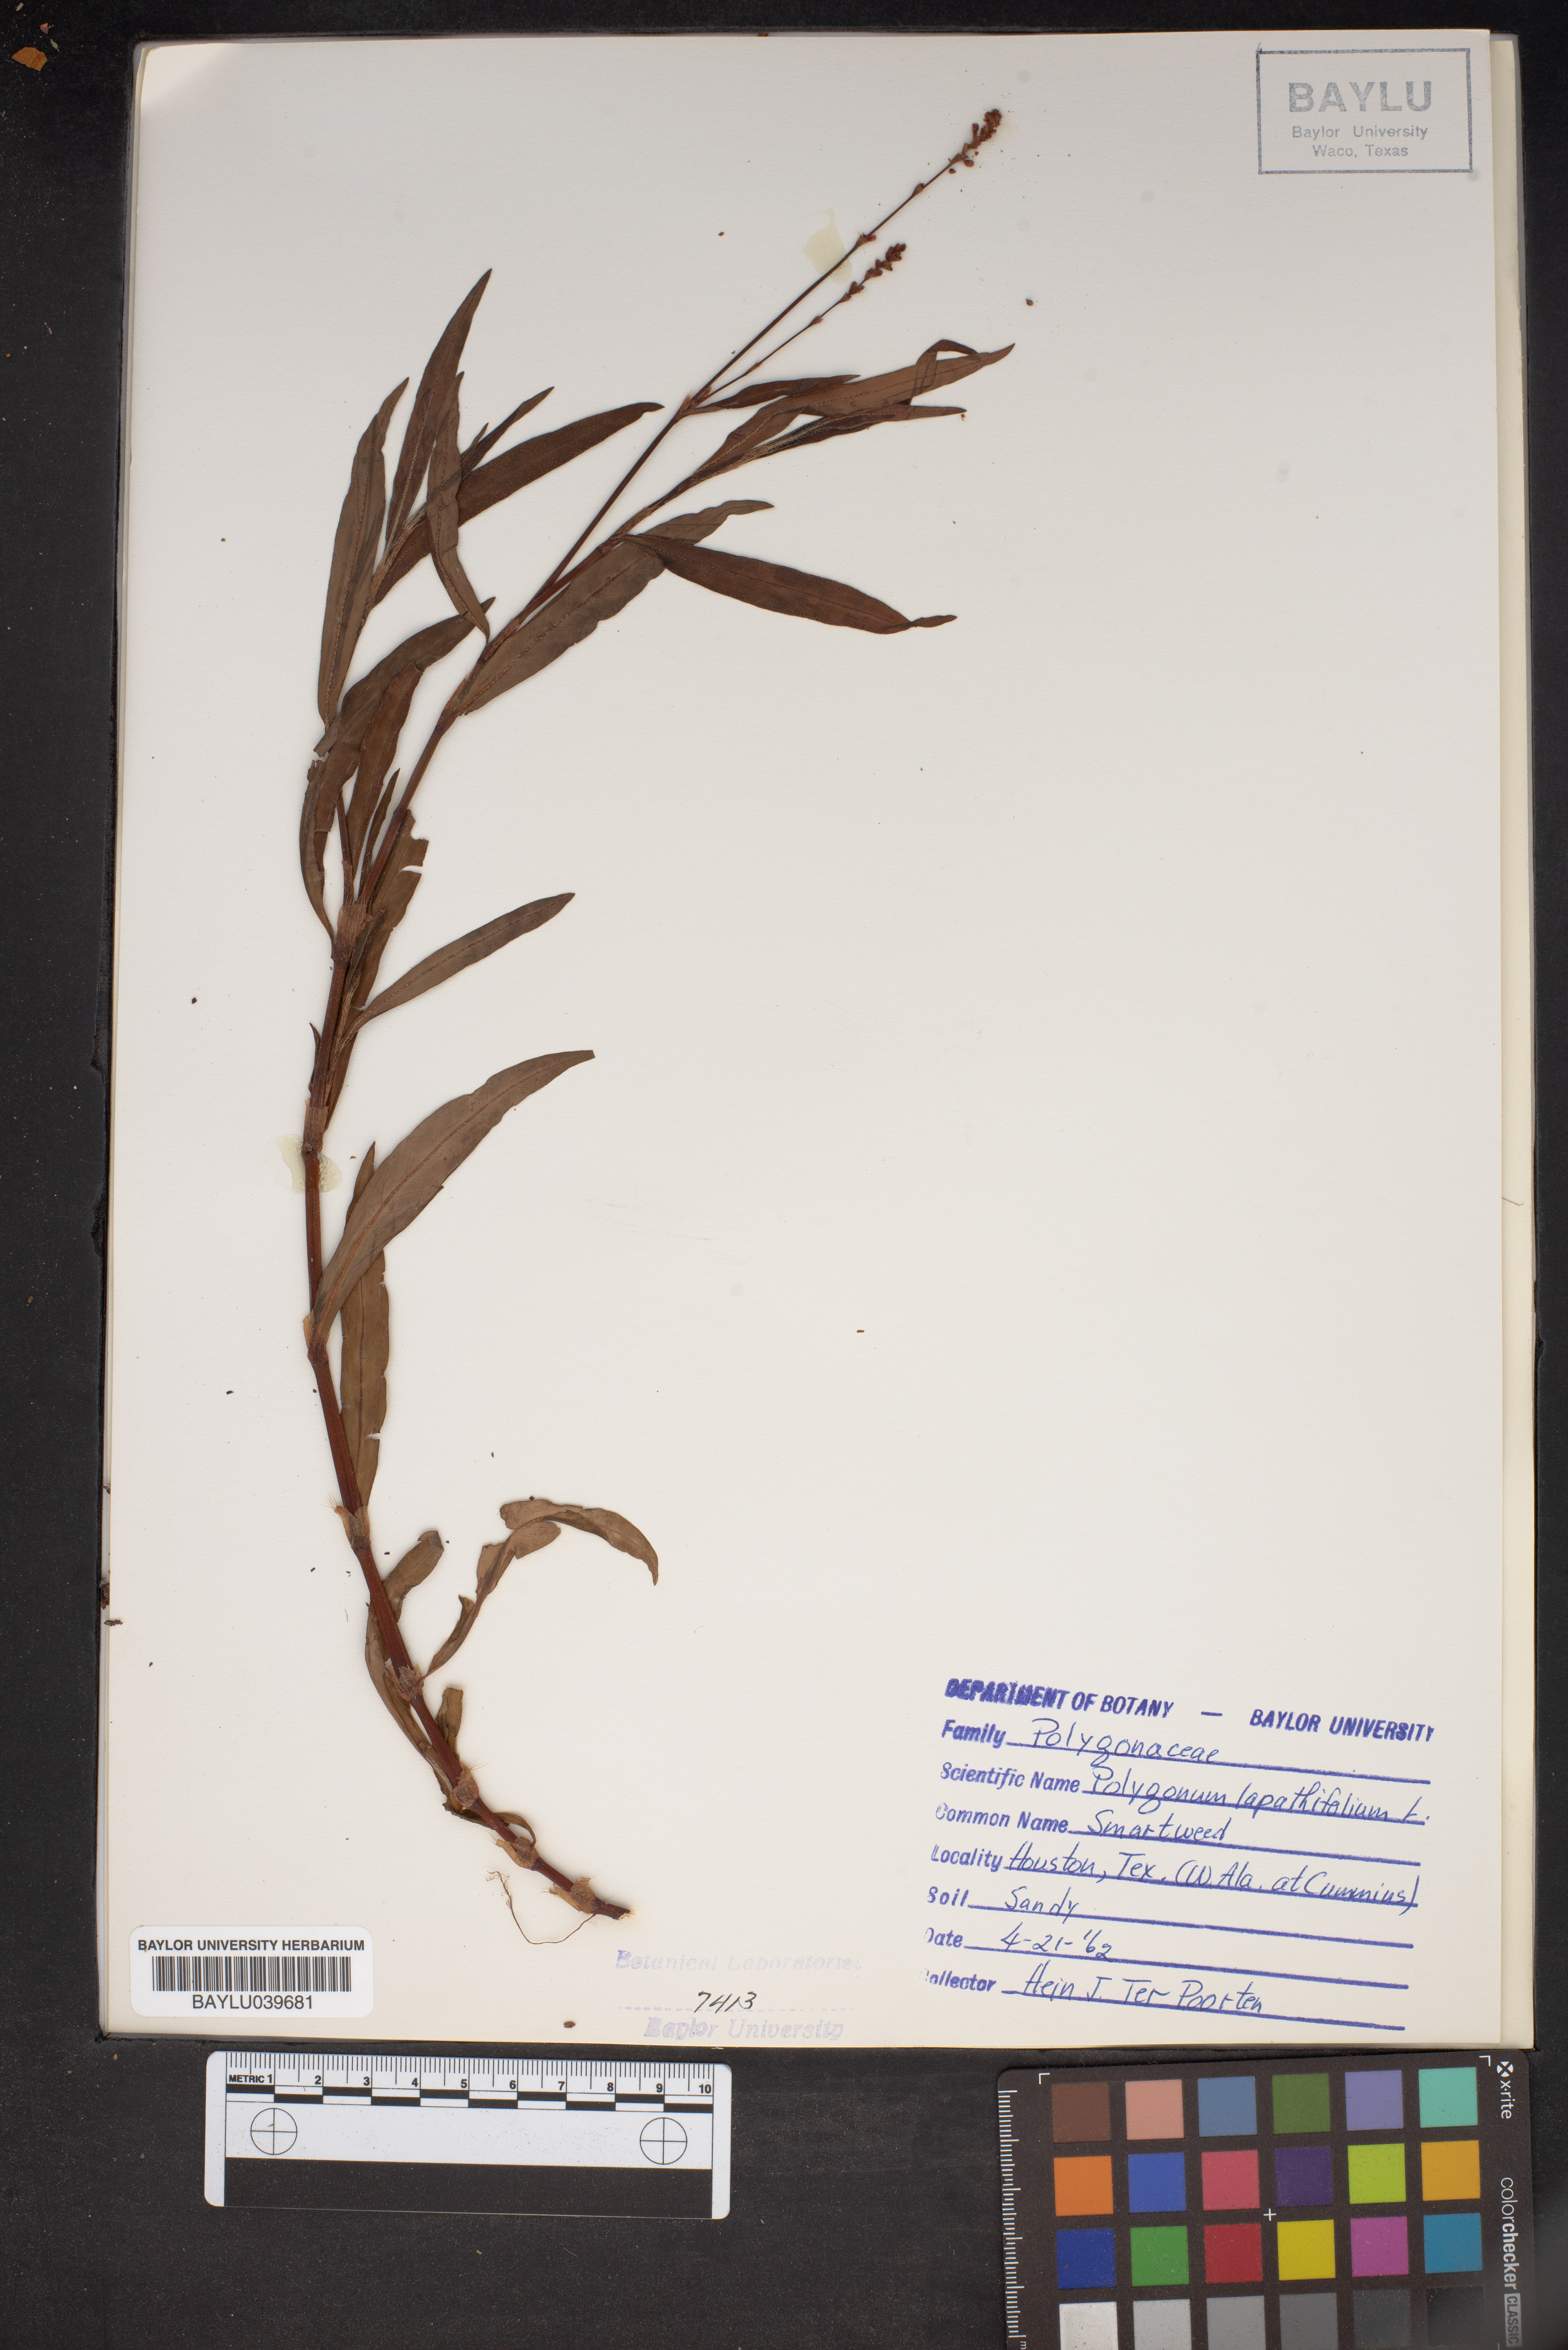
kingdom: Plantae
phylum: Tracheophyta
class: Magnoliopsida
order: Caryophyllales
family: Polygonaceae
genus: Persicaria
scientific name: Persicaria lapathifolia
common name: Curlytop knotweed
